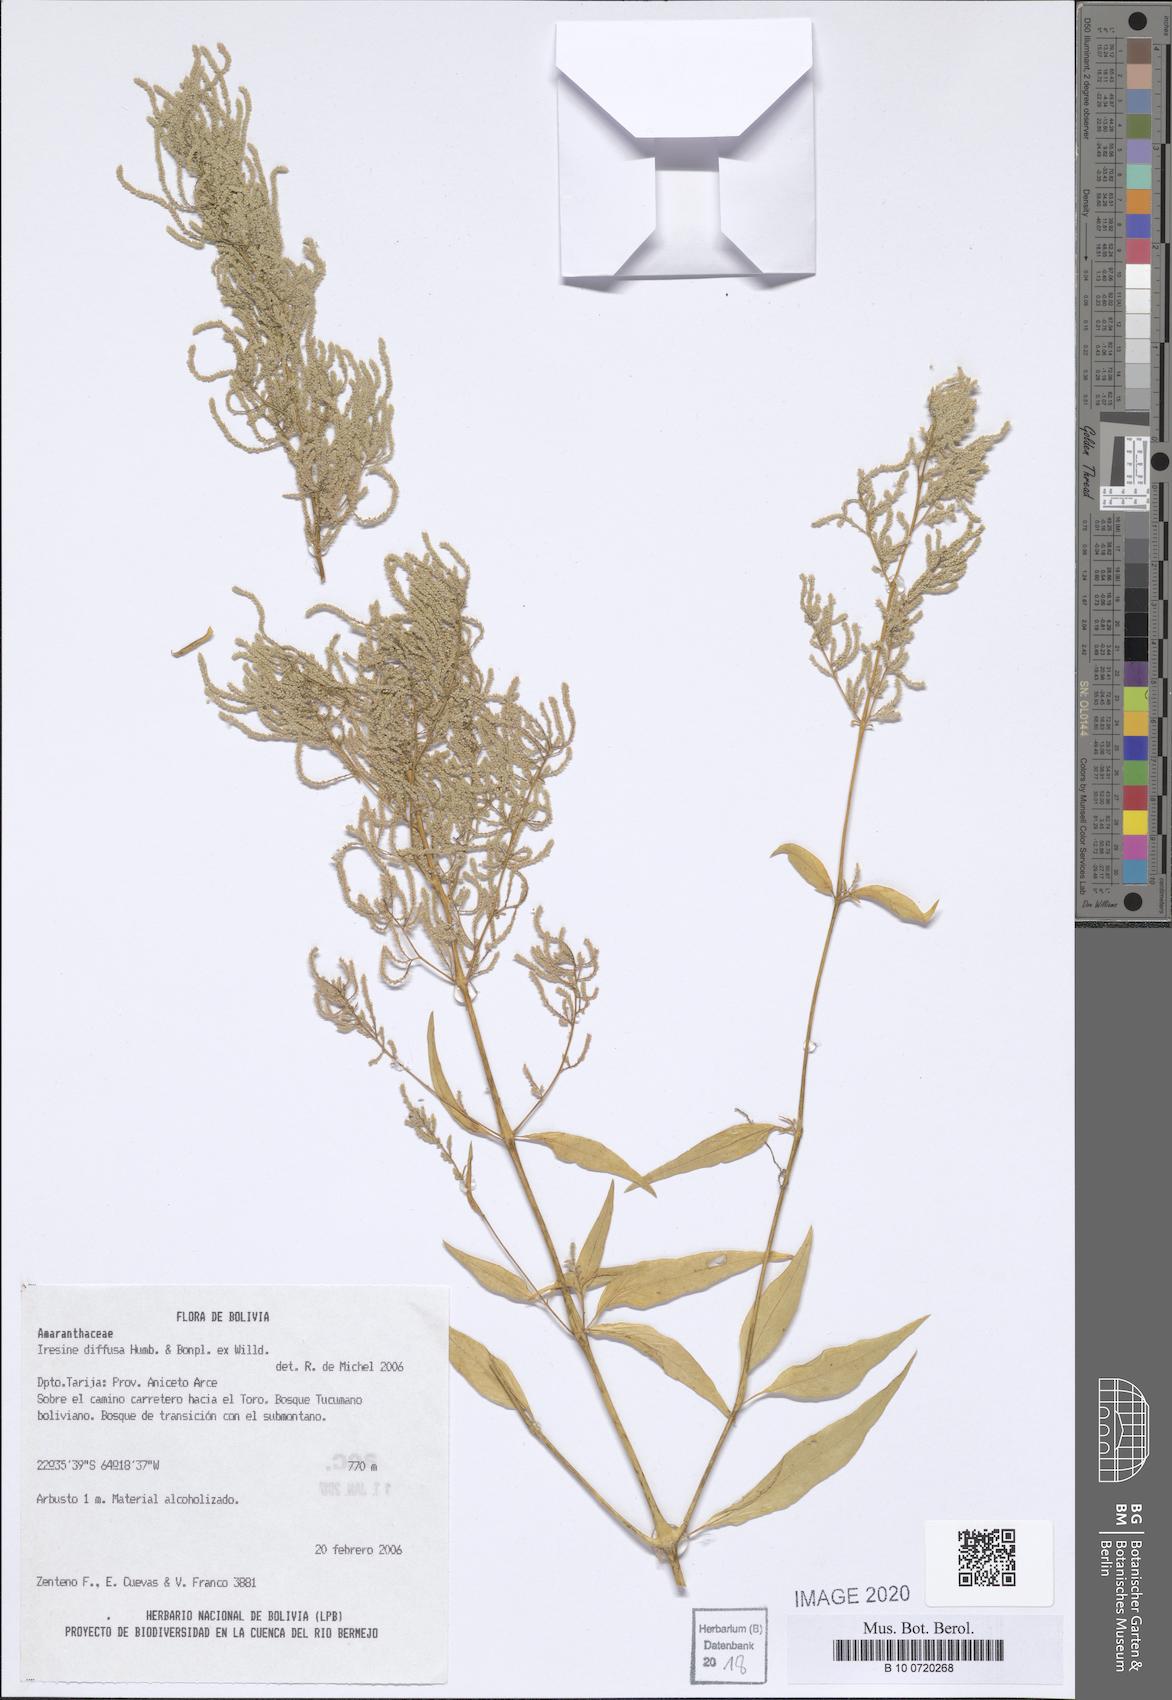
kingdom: Plantae
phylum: Tracheophyta
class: Magnoliopsida
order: Caryophyllales
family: Amaranthaceae
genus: Iresine
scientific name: Iresine diffusa
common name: Juba's-bush
